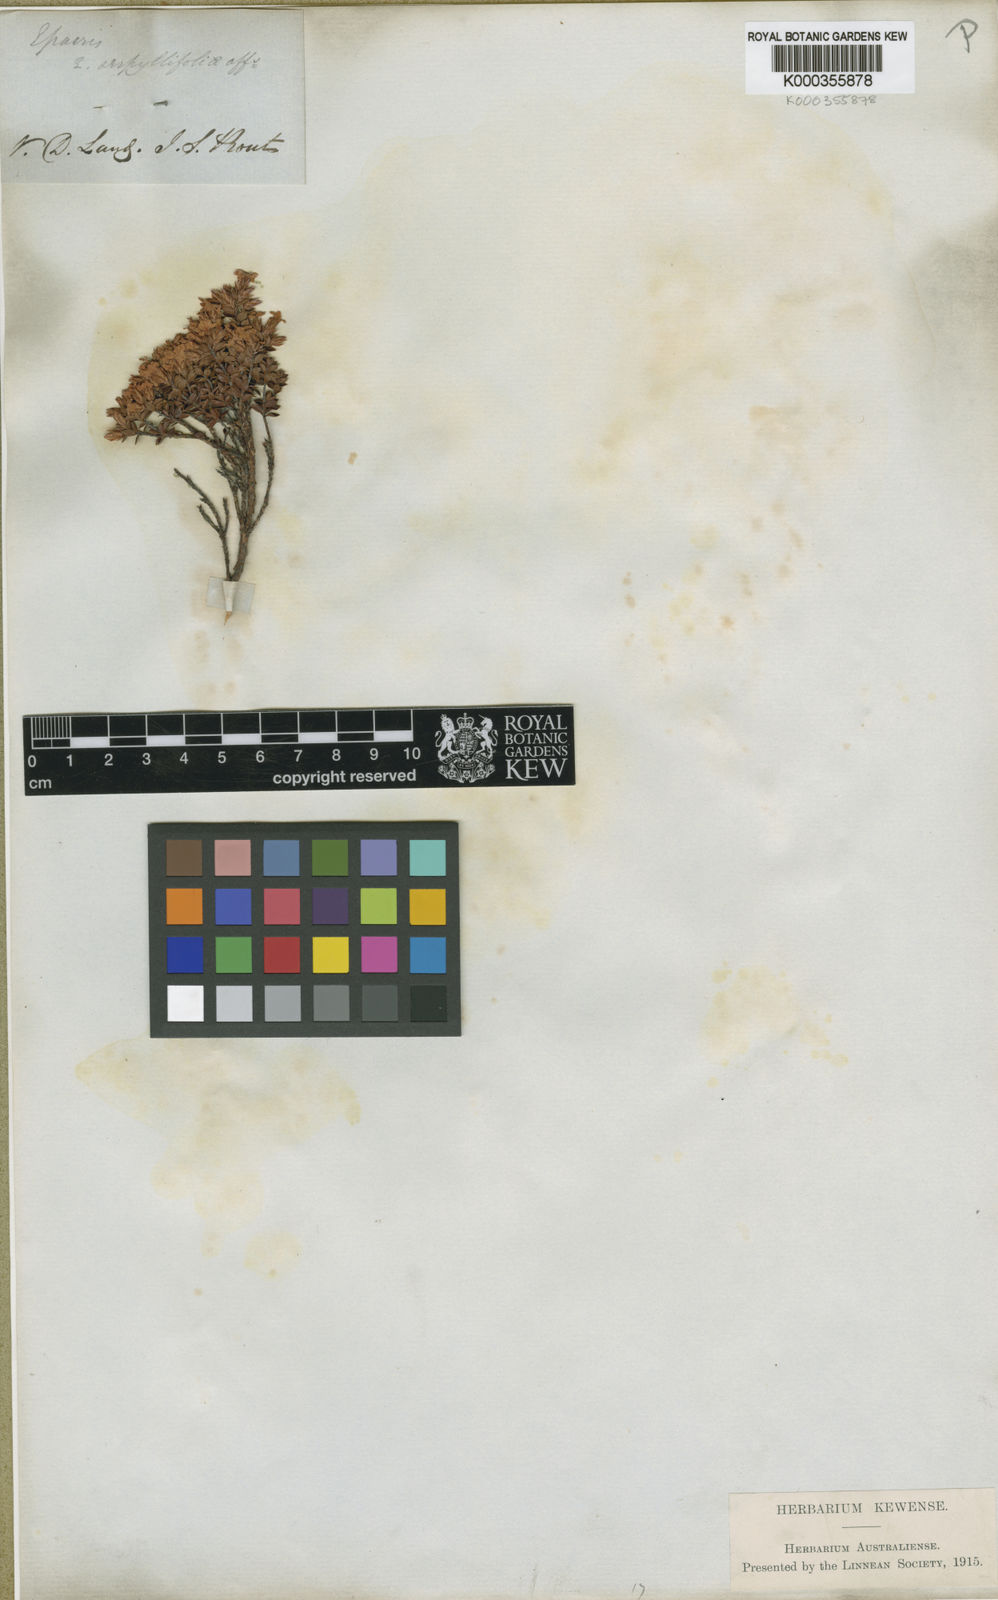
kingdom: Plantae
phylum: Tracheophyta
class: Magnoliopsida
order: Ericales
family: Ericaceae
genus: Epacris
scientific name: Epacris serpyllifolia
